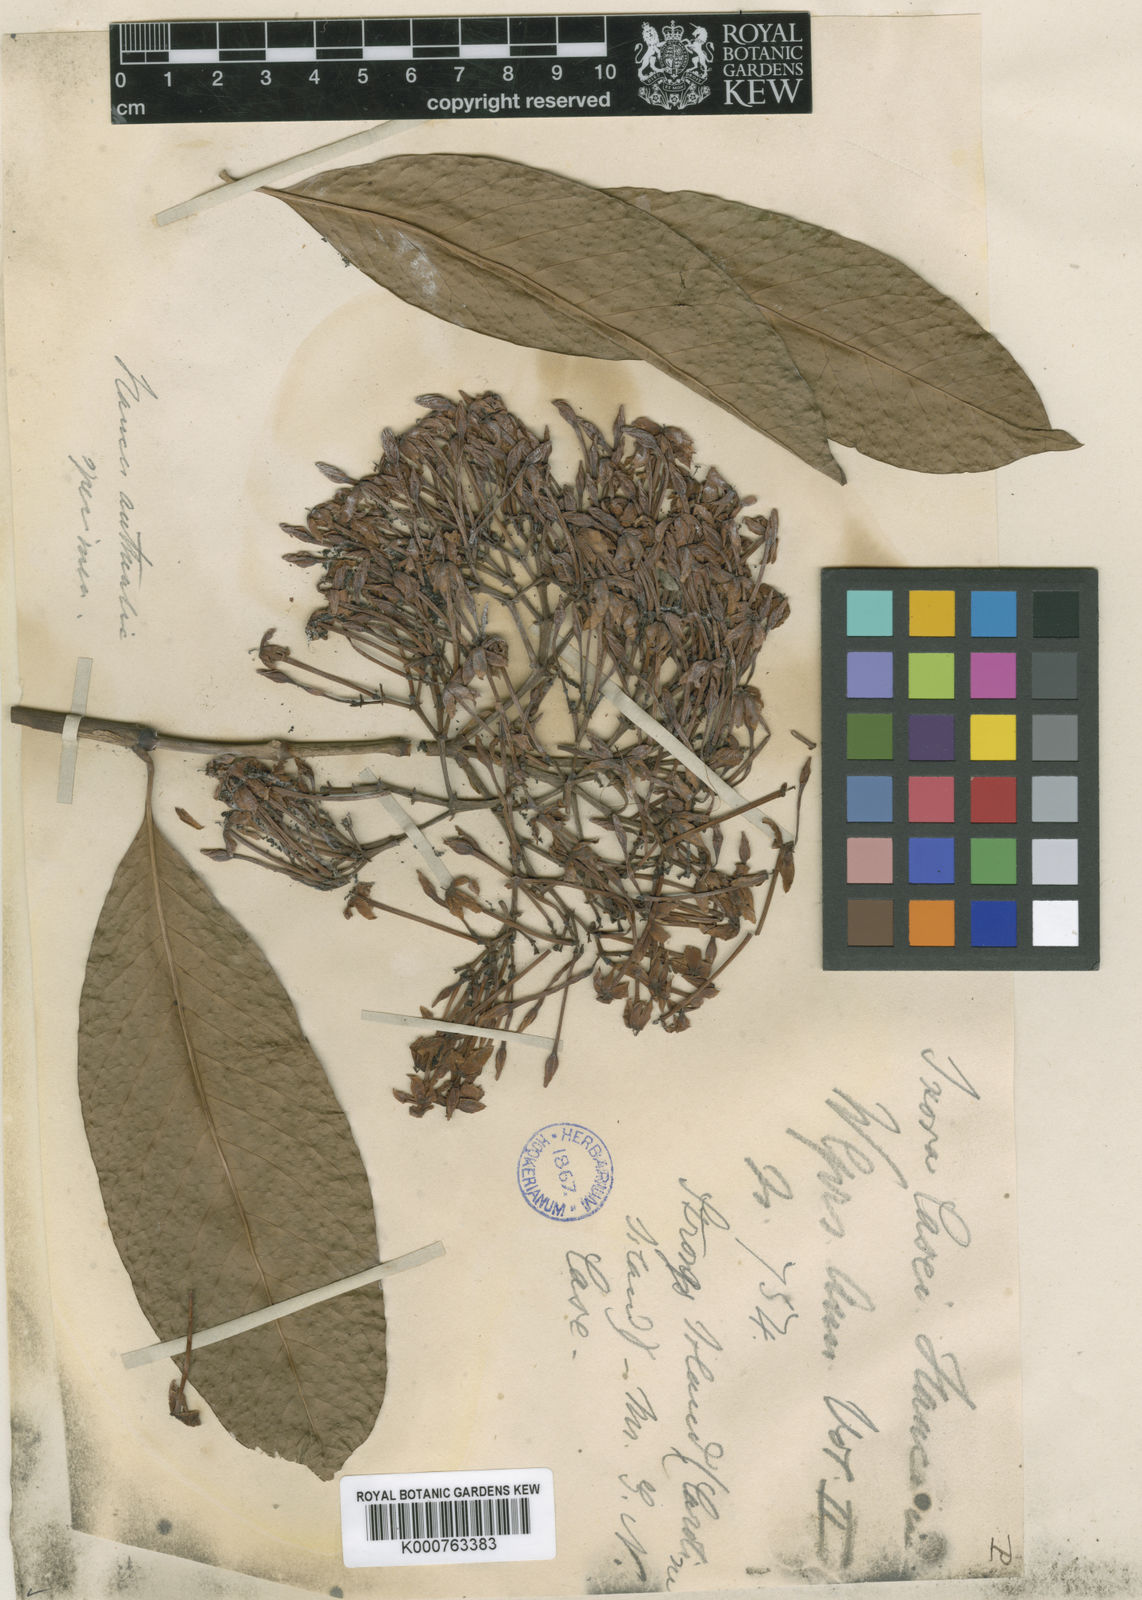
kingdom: Plantae
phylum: Tracheophyta
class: Magnoliopsida
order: Gentianales
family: Rubiaceae
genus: Ixora
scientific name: Ixora casei
